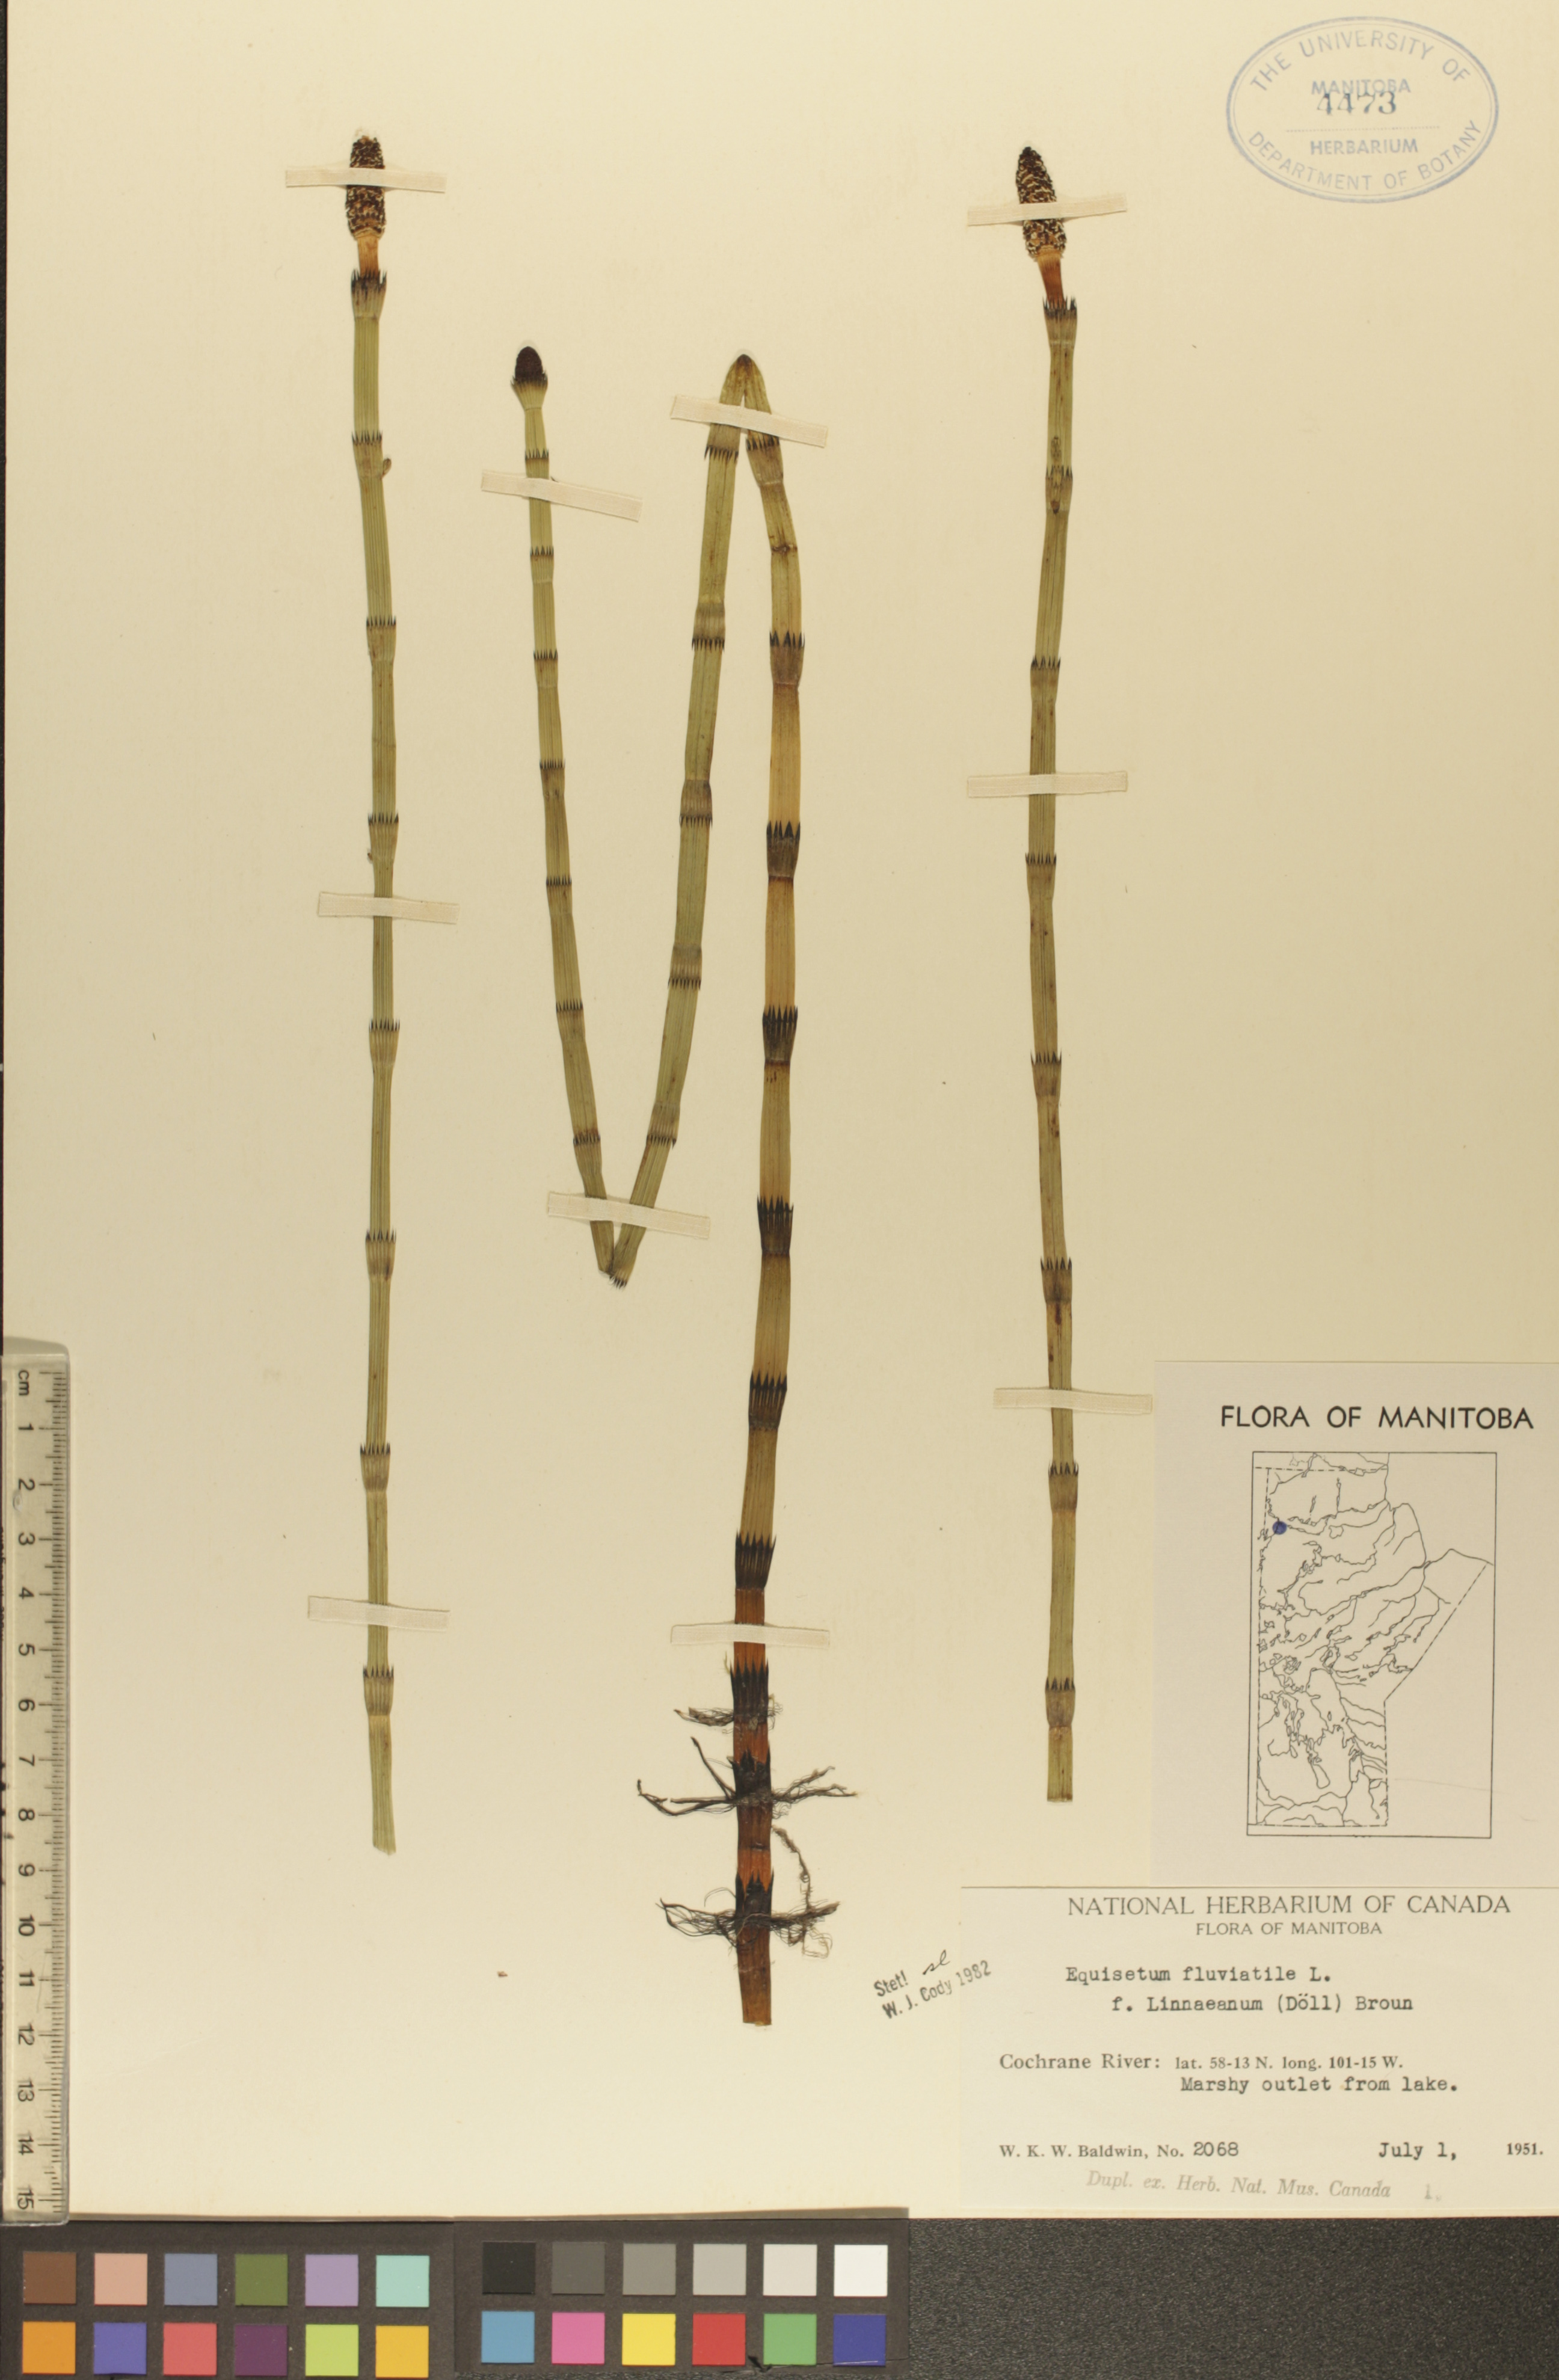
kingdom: Plantae
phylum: Tracheophyta
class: Polypodiopsida
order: Equisetales
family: Equisetaceae
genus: Equisetum
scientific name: Equisetum fluviatile
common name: Water horsetail
